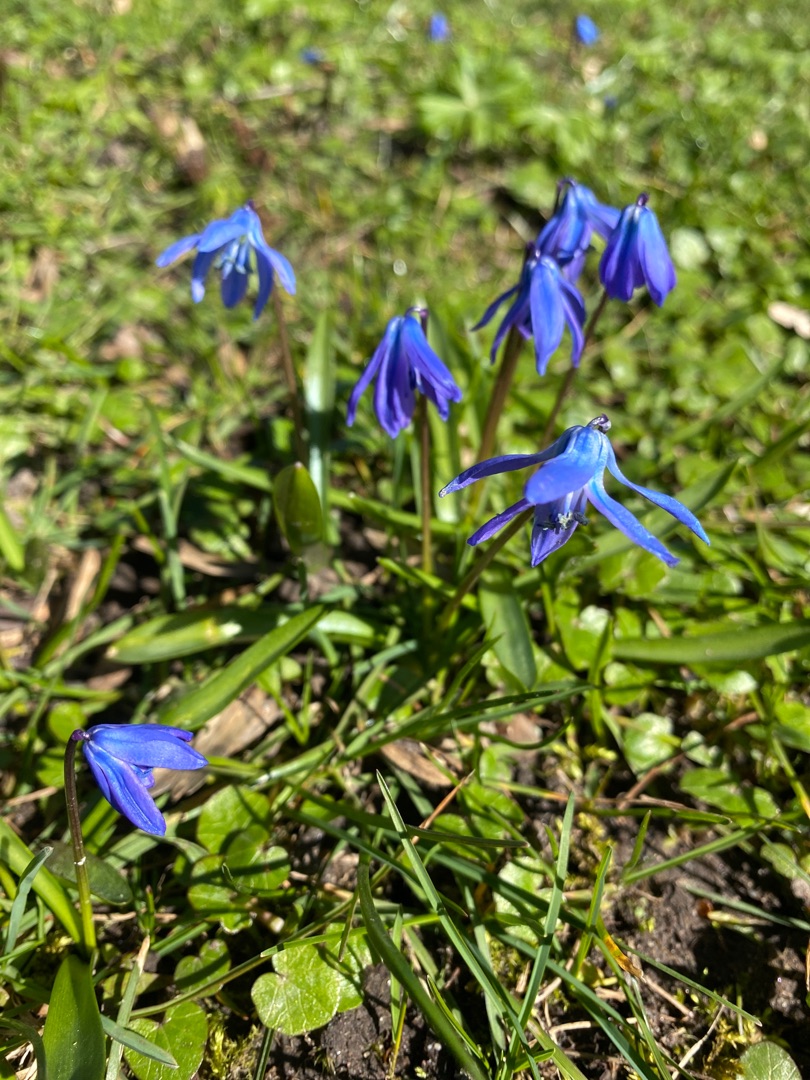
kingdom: Plantae
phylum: Tracheophyta
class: Liliopsida
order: Asparagales
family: Asparagaceae
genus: Scilla
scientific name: Scilla siberica
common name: Russisk skilla
